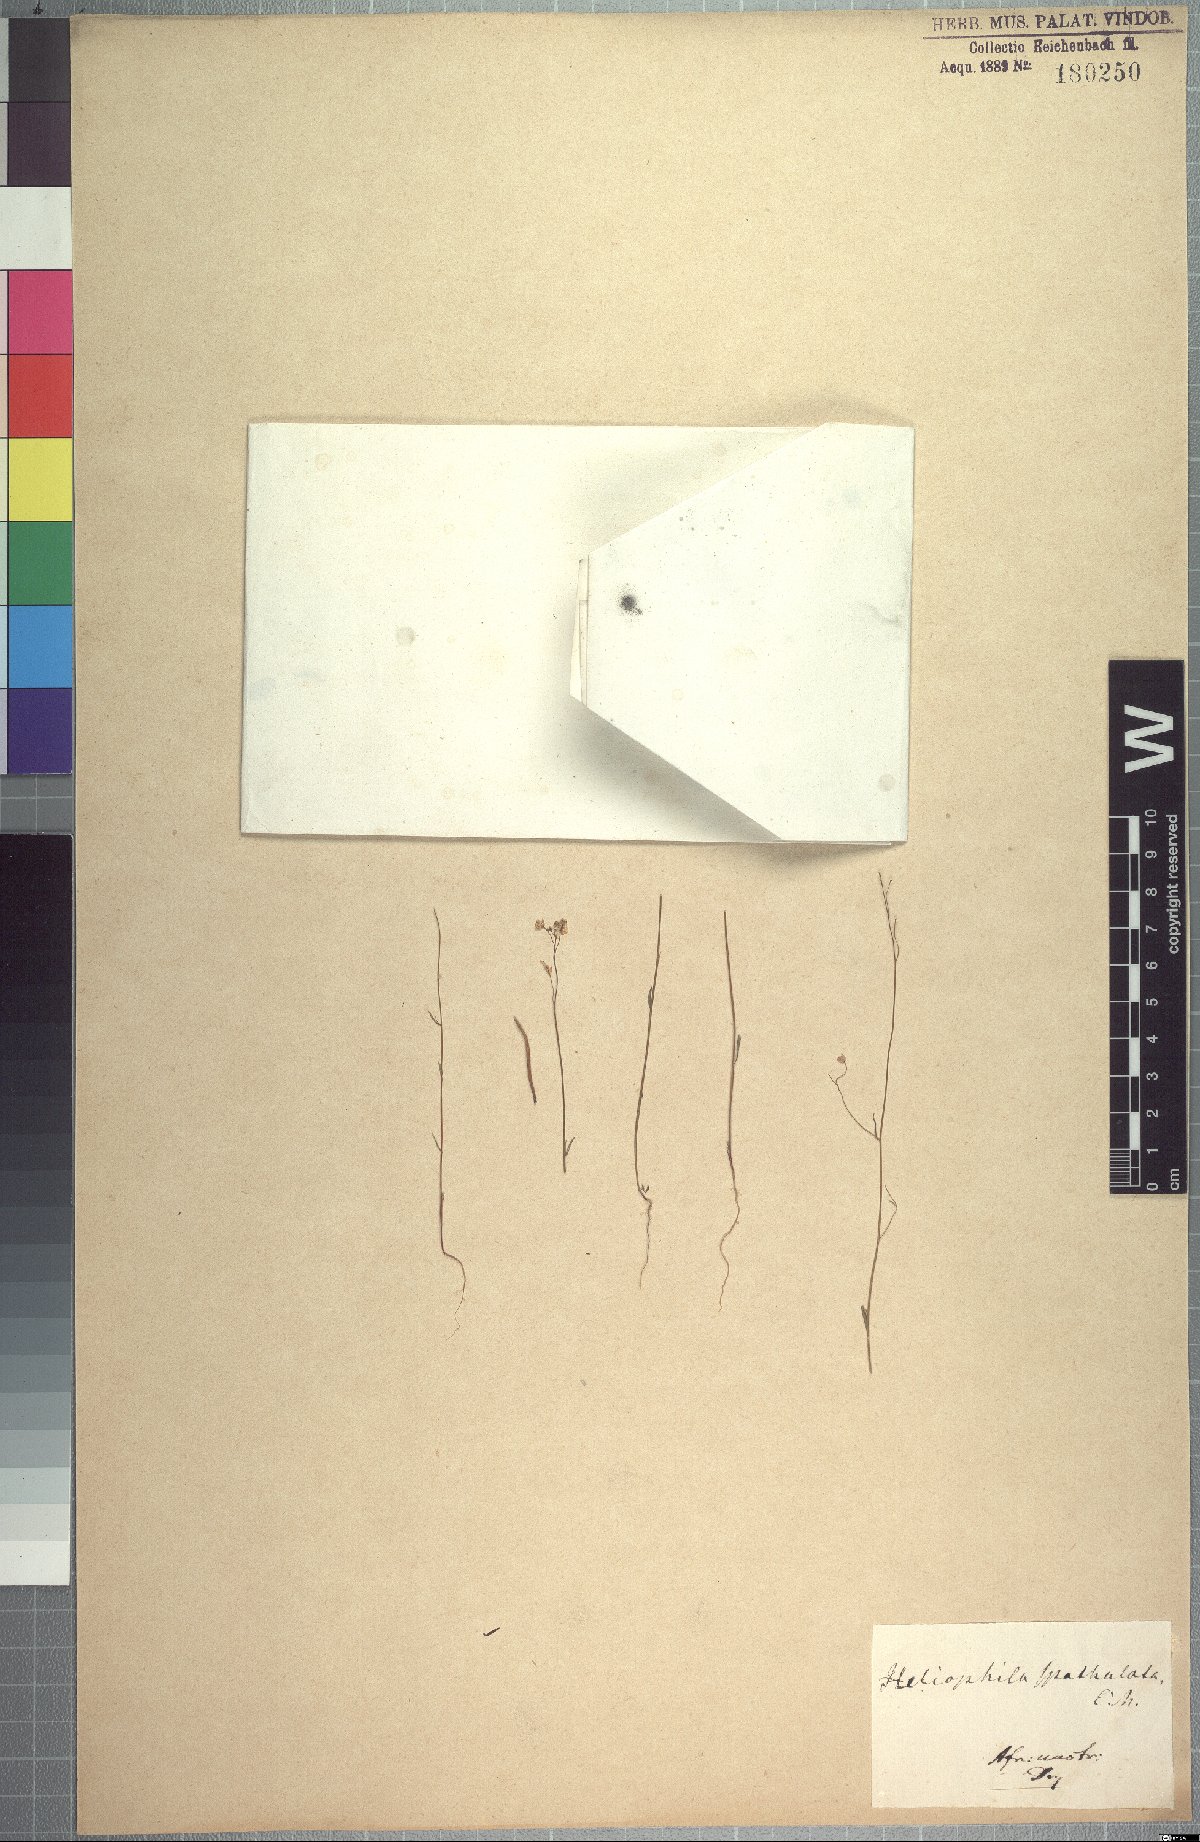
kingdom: Plantae
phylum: Tracheophyta
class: Magnoliopsida
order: Brassicales
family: Brassicaceae
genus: Heliophila
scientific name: Heliophila amplexicaulis
